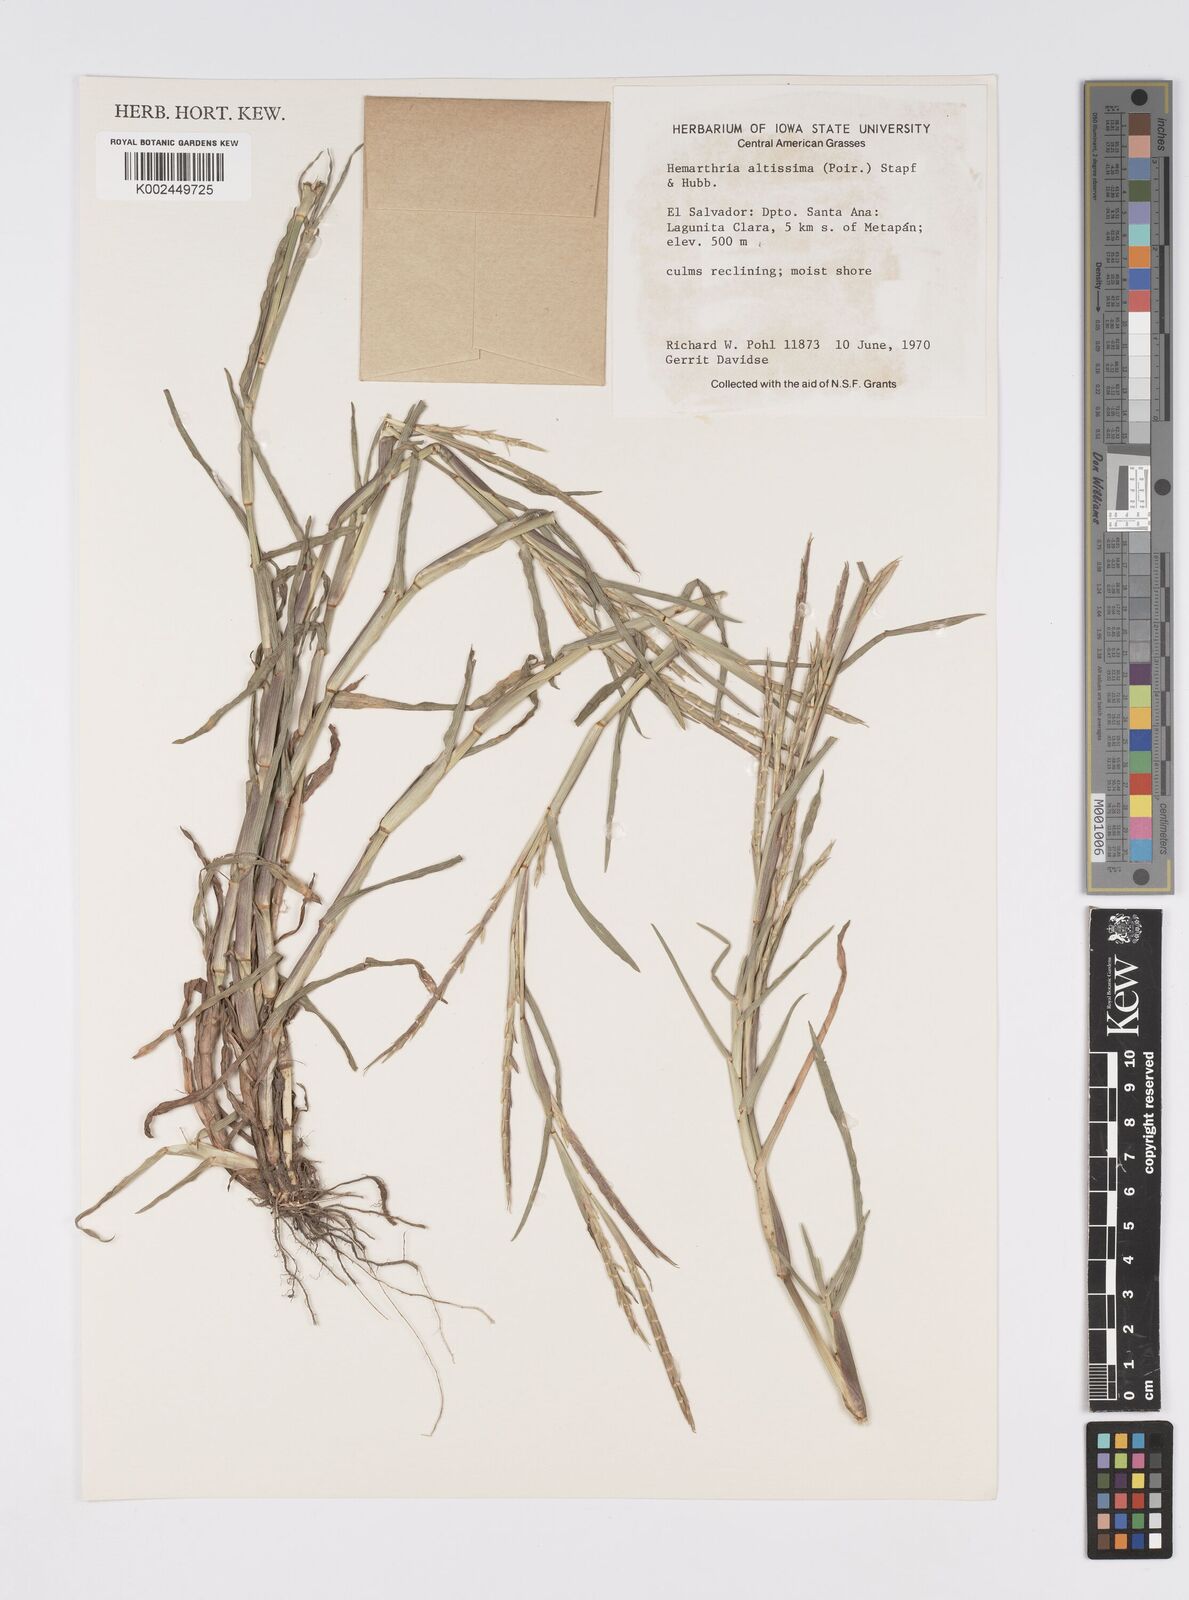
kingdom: Plantae
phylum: Tracheophyta
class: Liliopsida
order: Poales
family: Poaceae
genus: Hemarthria
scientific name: Hemarthria altissima
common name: African jointgrass
